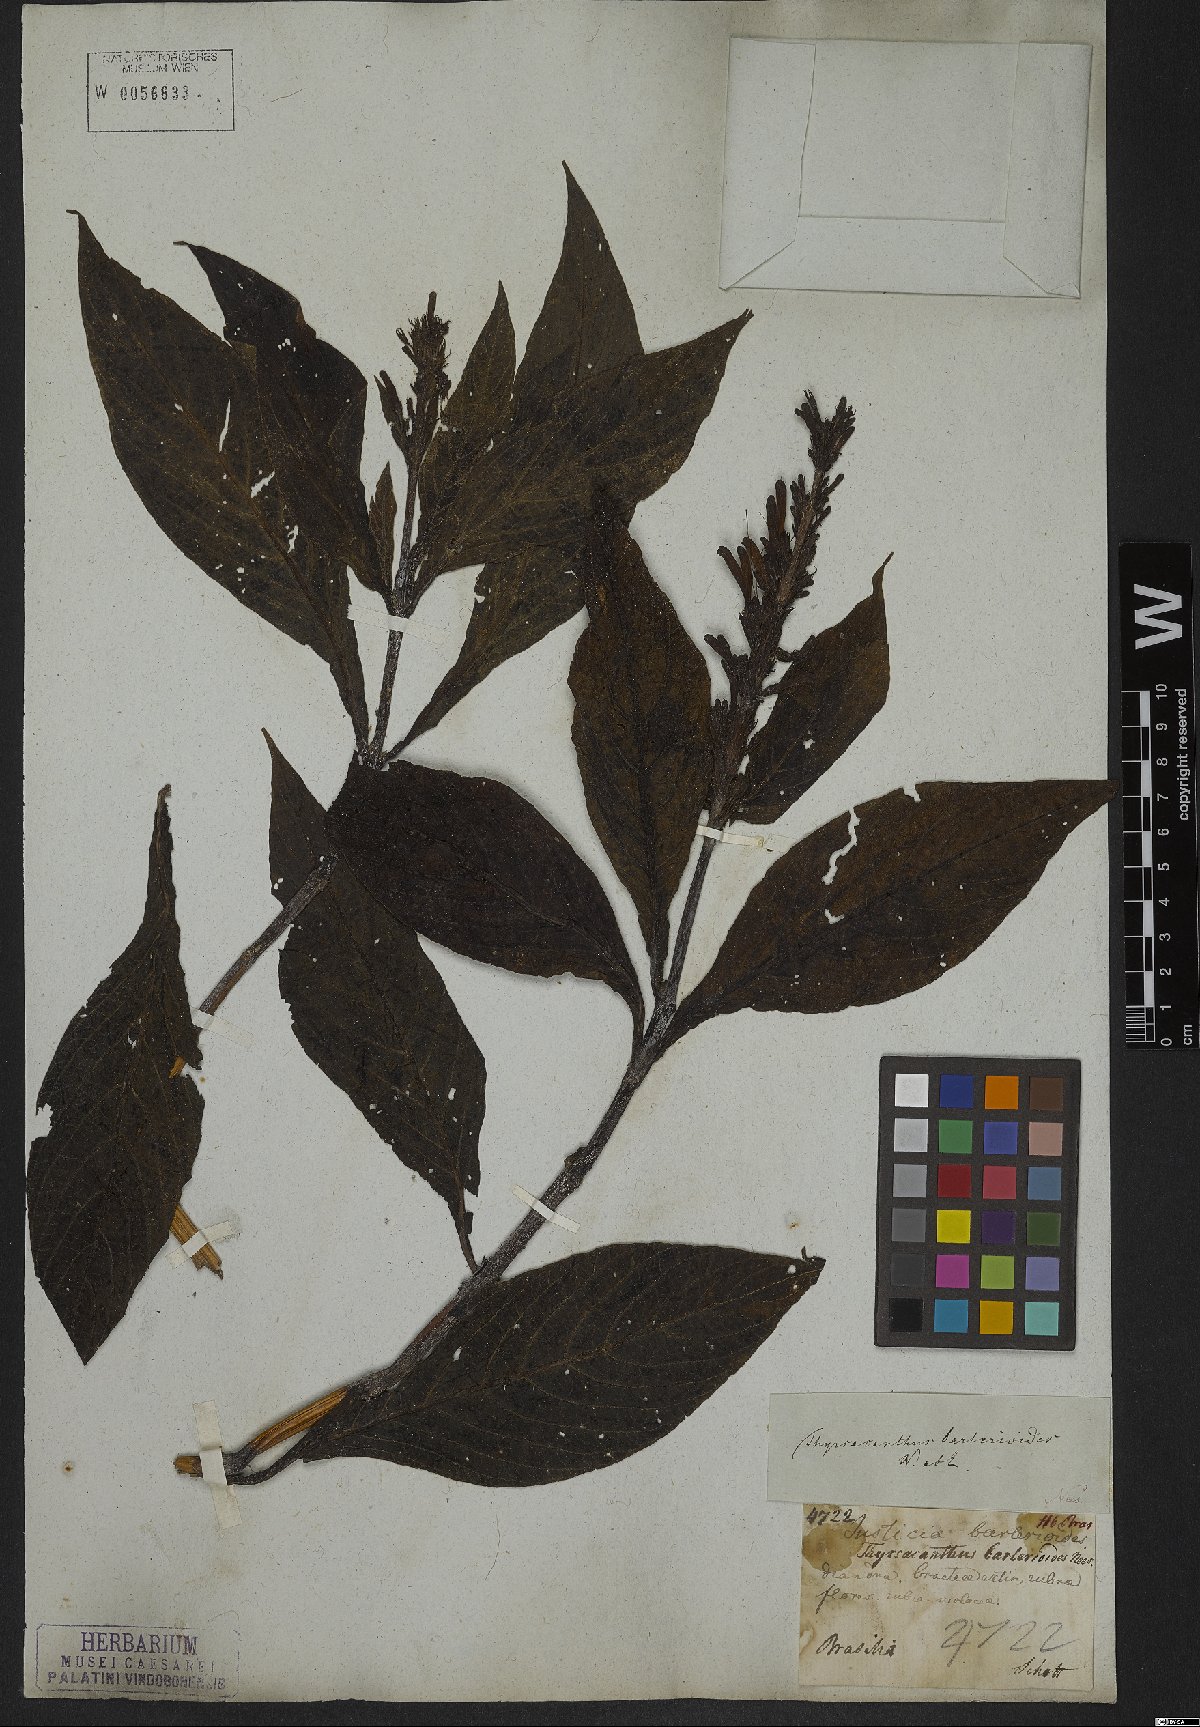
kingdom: Plantae
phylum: Tracheophyta
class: Magnoliopsida
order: Lamiales
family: Acanthaceae
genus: Odontonema
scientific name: Odontonema barlerioides
